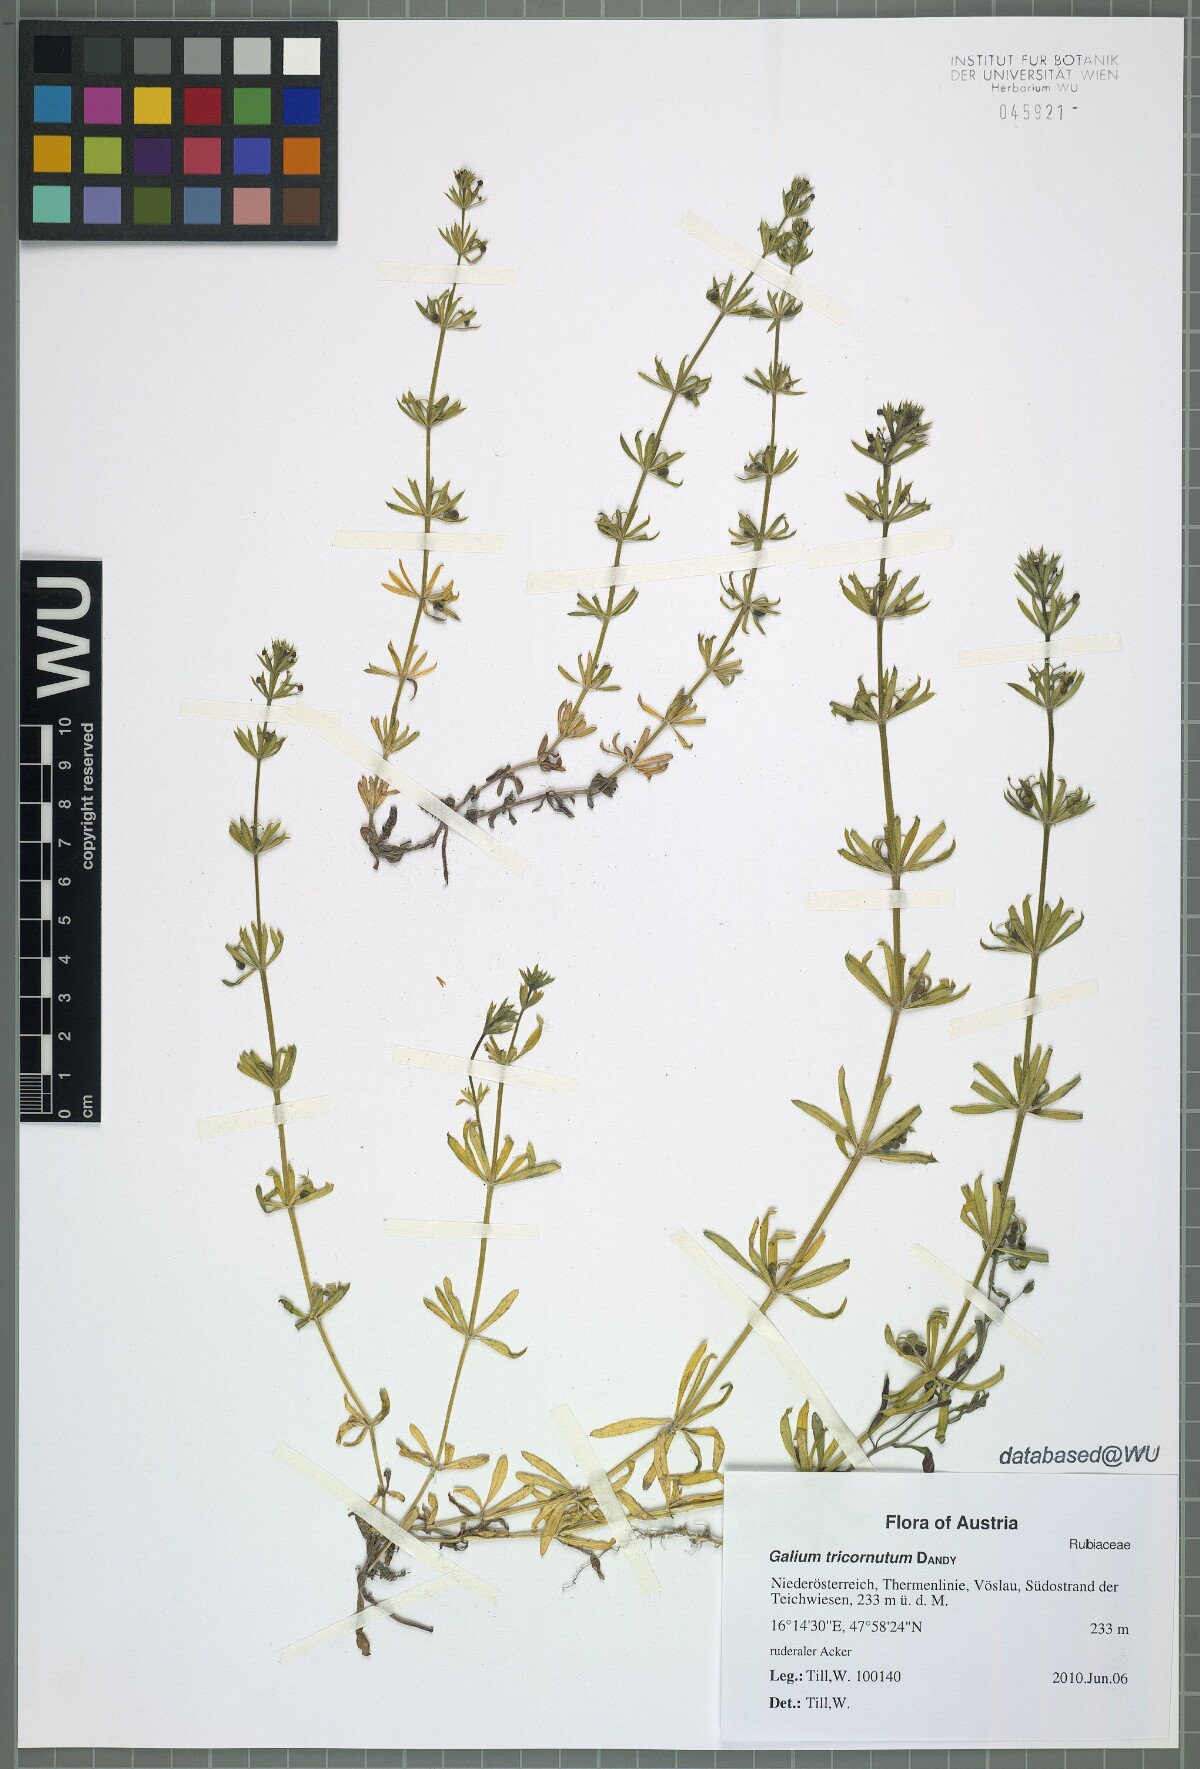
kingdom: Plantae
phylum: Tracheophyta
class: Magnoliopsida
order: Gentianales
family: Rubiaceae
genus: Galium
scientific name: Galium tricornutum
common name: Corn cleavers
